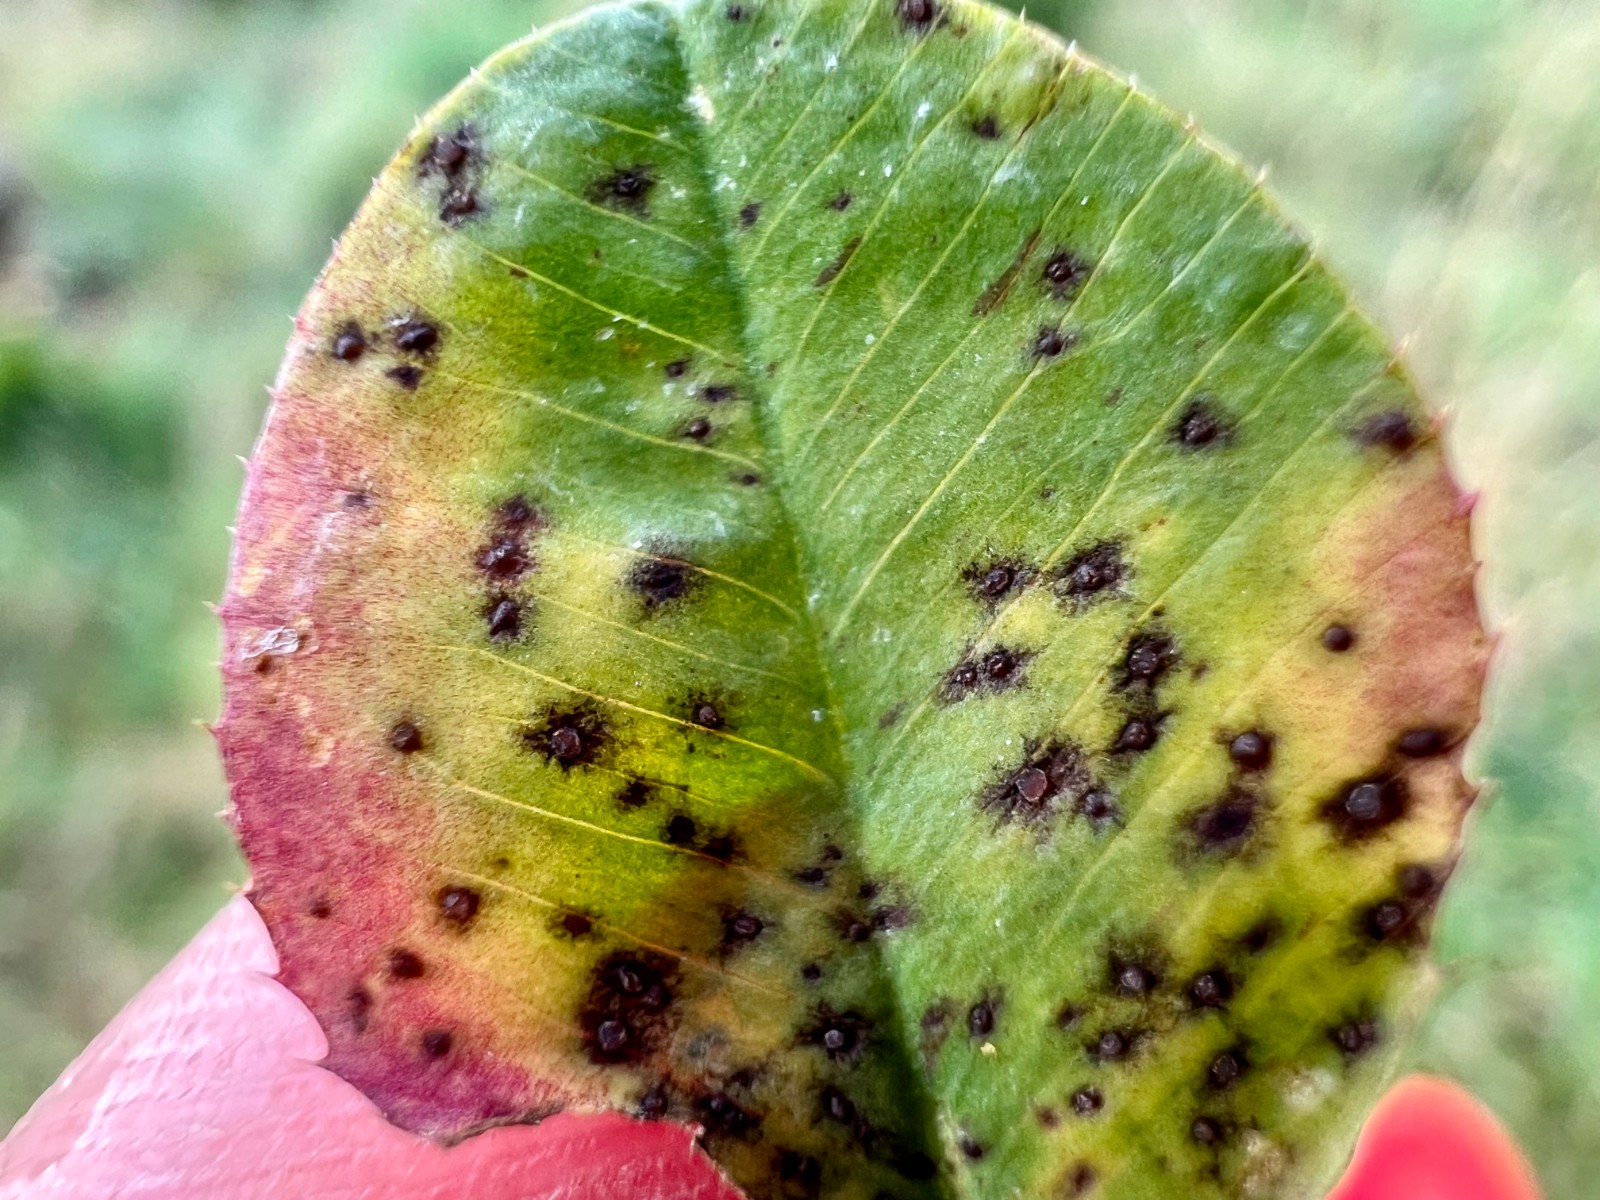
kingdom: Fungi
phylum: Ascomycota
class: Leotiomycetes
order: Helotiales
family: Drepanopezizaceae
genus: Pseudopeziza
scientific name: Pseudopeziza trifolii
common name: kløver-bladskive
